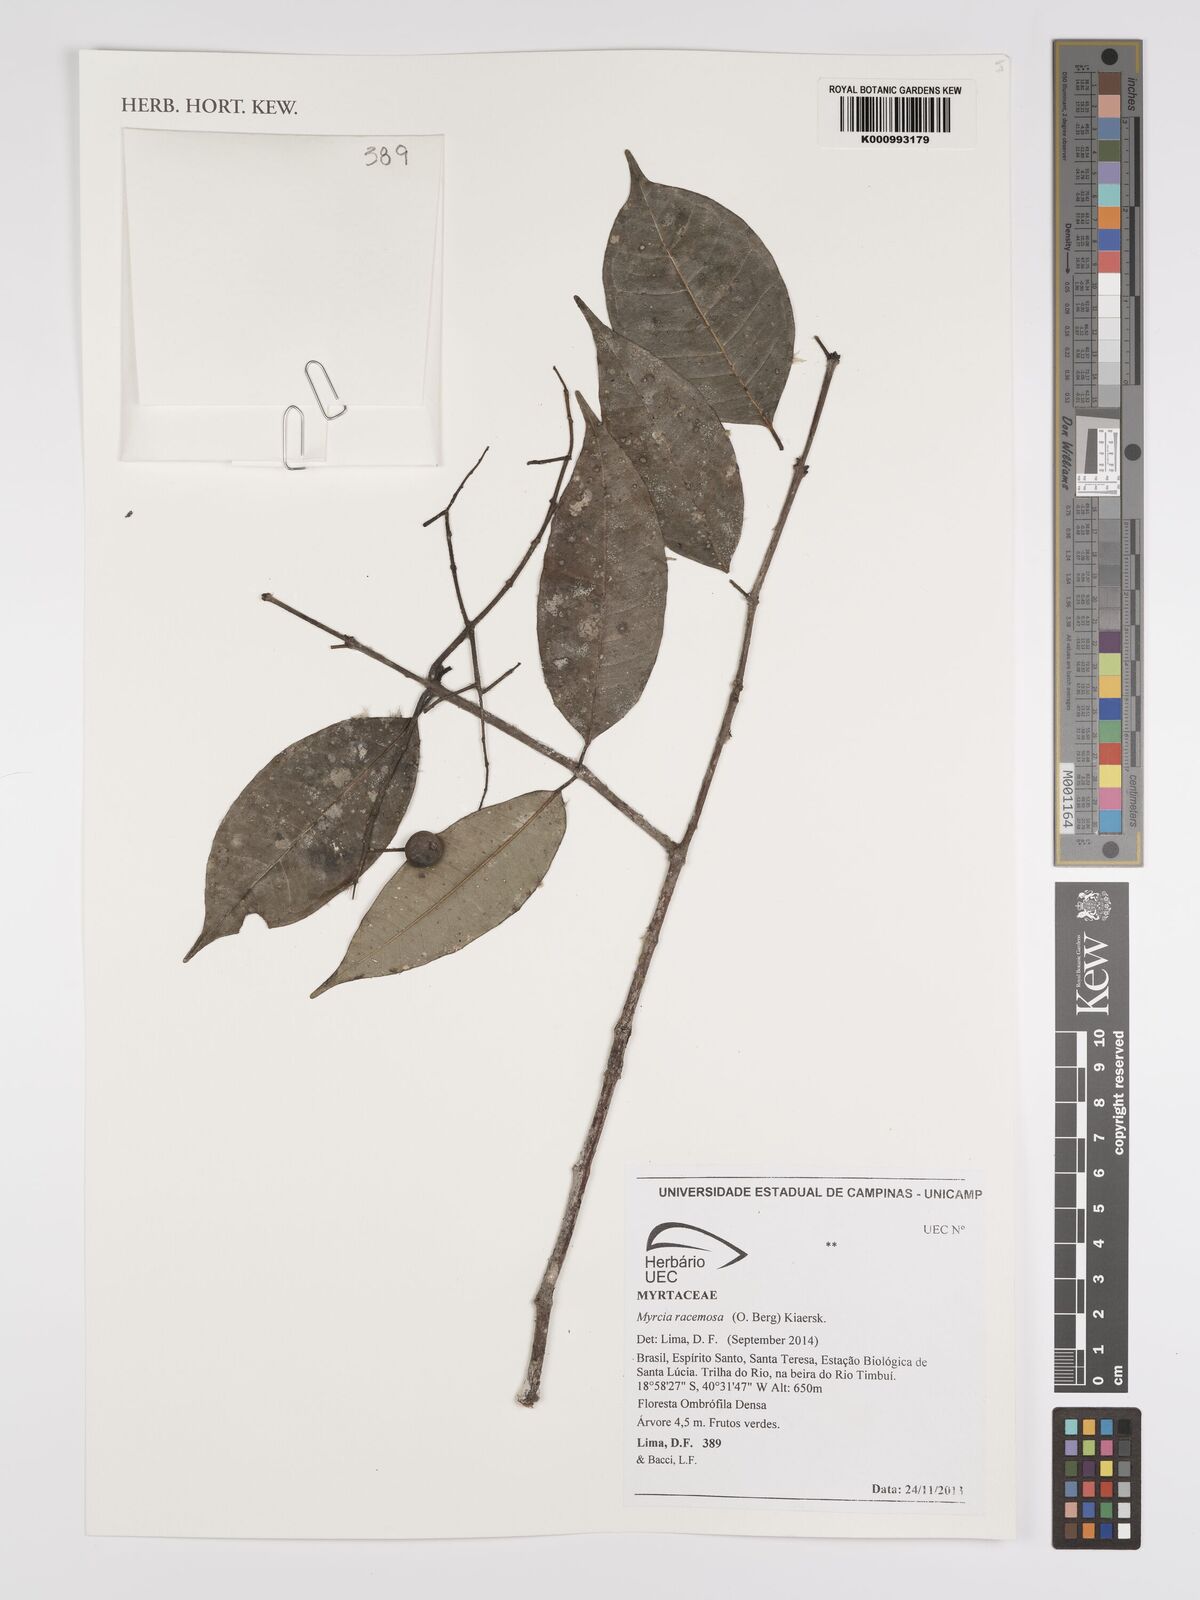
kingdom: Plantae
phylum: Tracheophyta
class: Magnoliopsida
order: Myrtales
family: Myrtaceae
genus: Myrcia
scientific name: Myrcia racemosa
